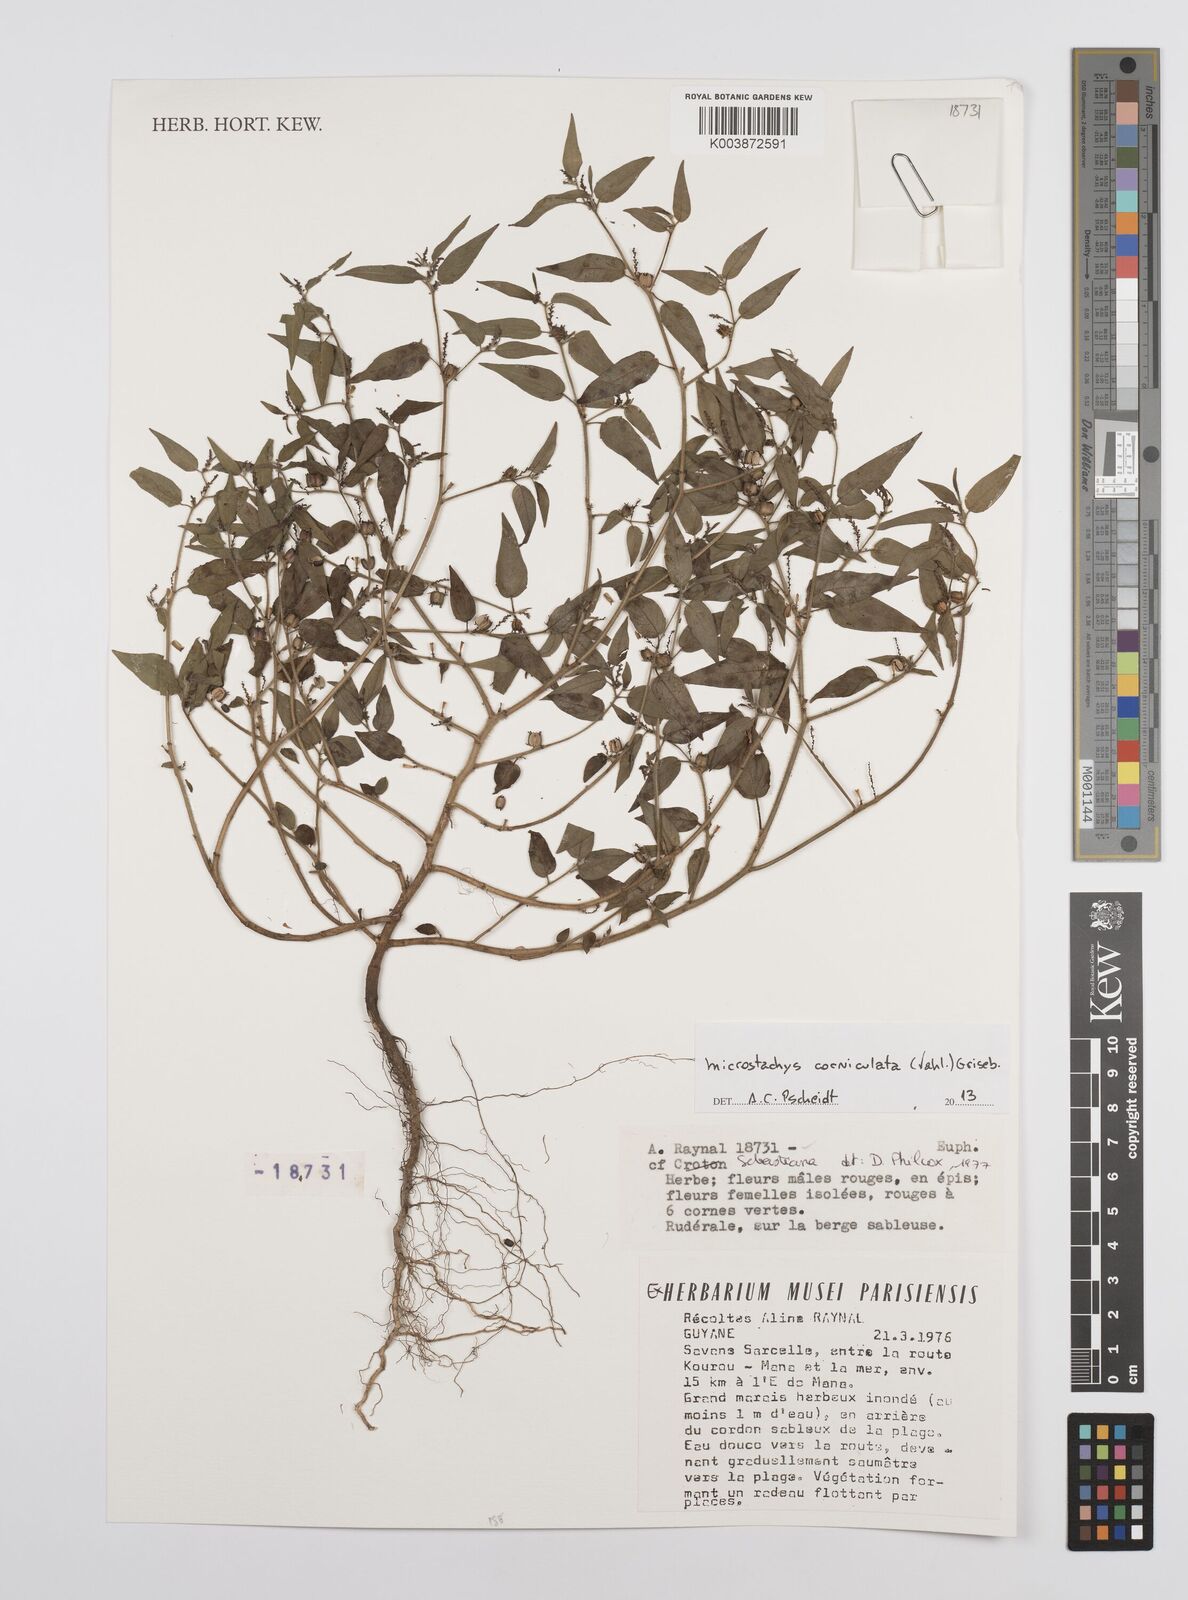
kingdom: Plantae
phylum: Tracheophyta
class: Magnoliopsida
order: Malpighiales
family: Euphorbiaceae
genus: Microstachys
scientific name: Microstachys corniculata
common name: Hato tejas
